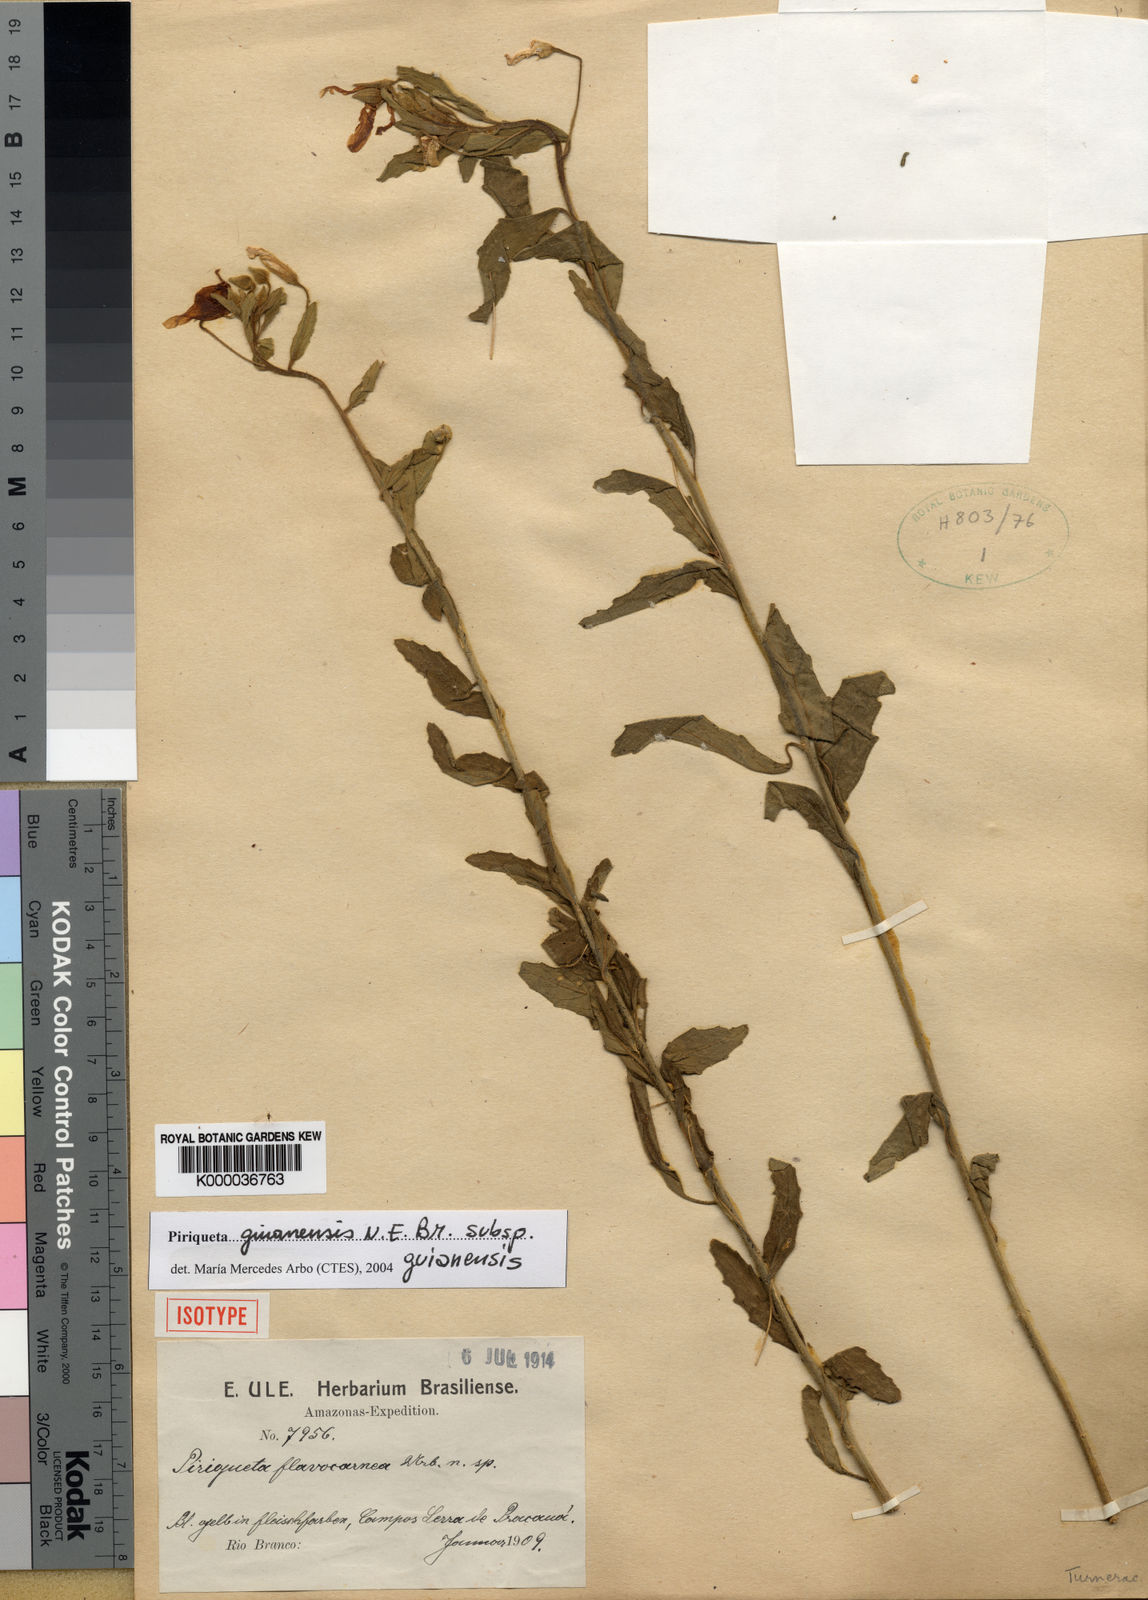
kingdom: Plantae
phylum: Tracheophyta
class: Magnoliopsida
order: Malpighiales
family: Turneraceae
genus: Piriqueta
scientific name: Piriqueta guianensis
